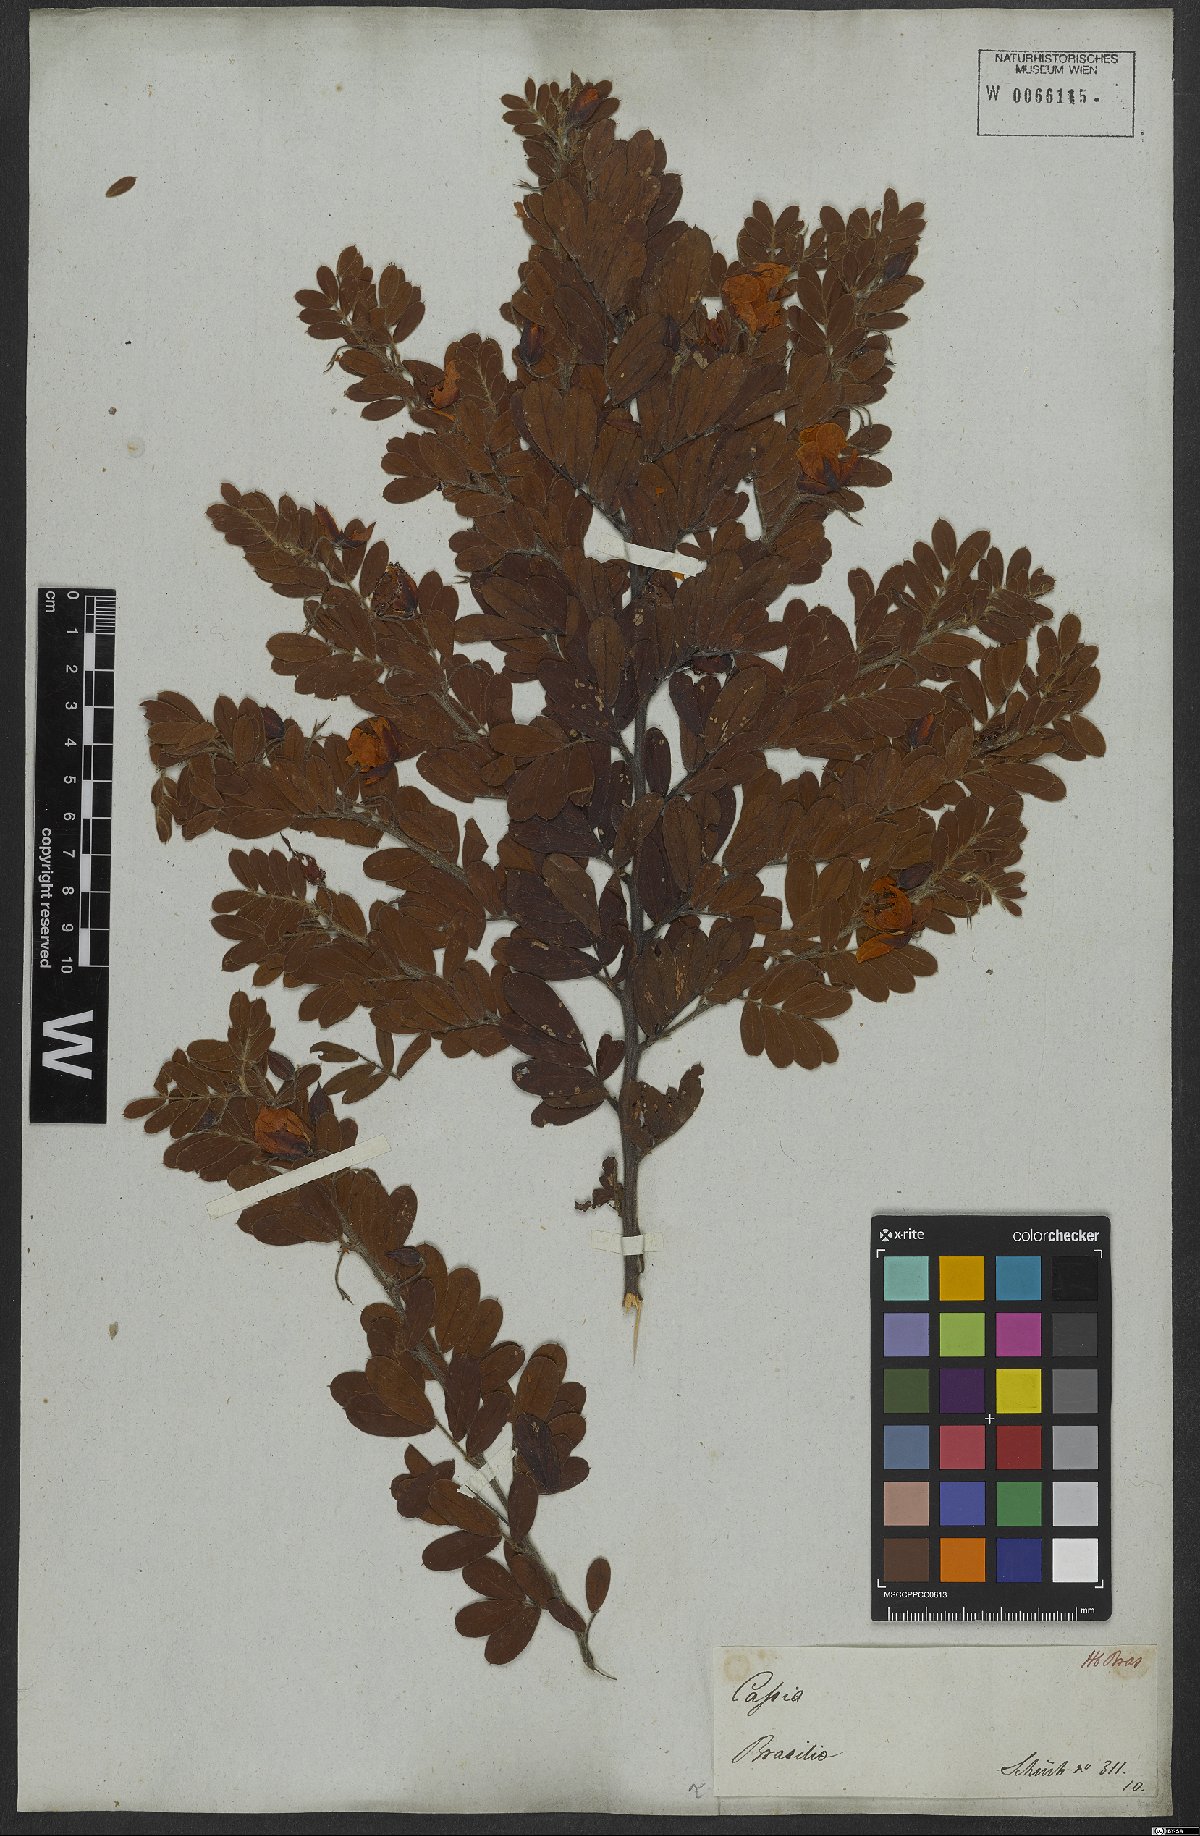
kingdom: Plantae
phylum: Tracheophyta
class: Magnoliopsida
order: Fabales
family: Fabaceae
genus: Chamaecrista
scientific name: Chamaecrista mucronata
